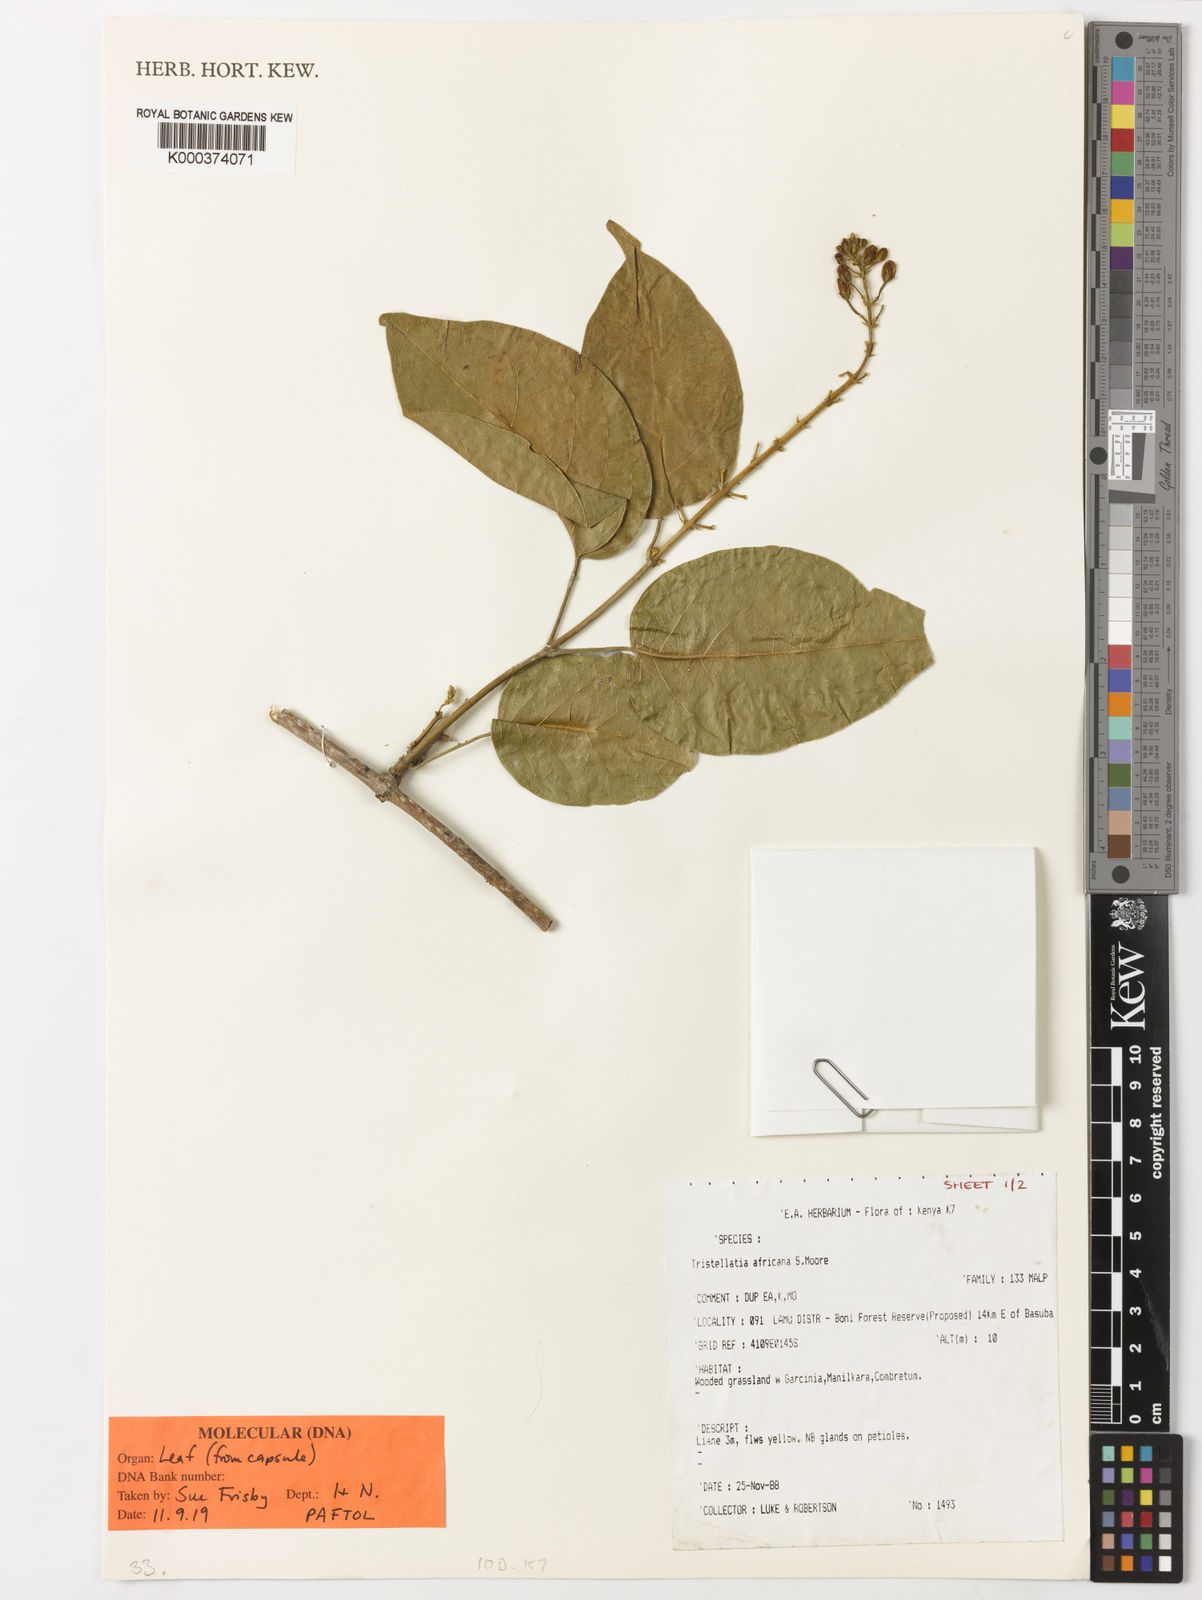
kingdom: Plantae
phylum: Tracheophyta
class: Magnoliopsida
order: Malpighiales
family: Malpighiaceae
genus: Tristellateia
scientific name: Tristellateia africana
